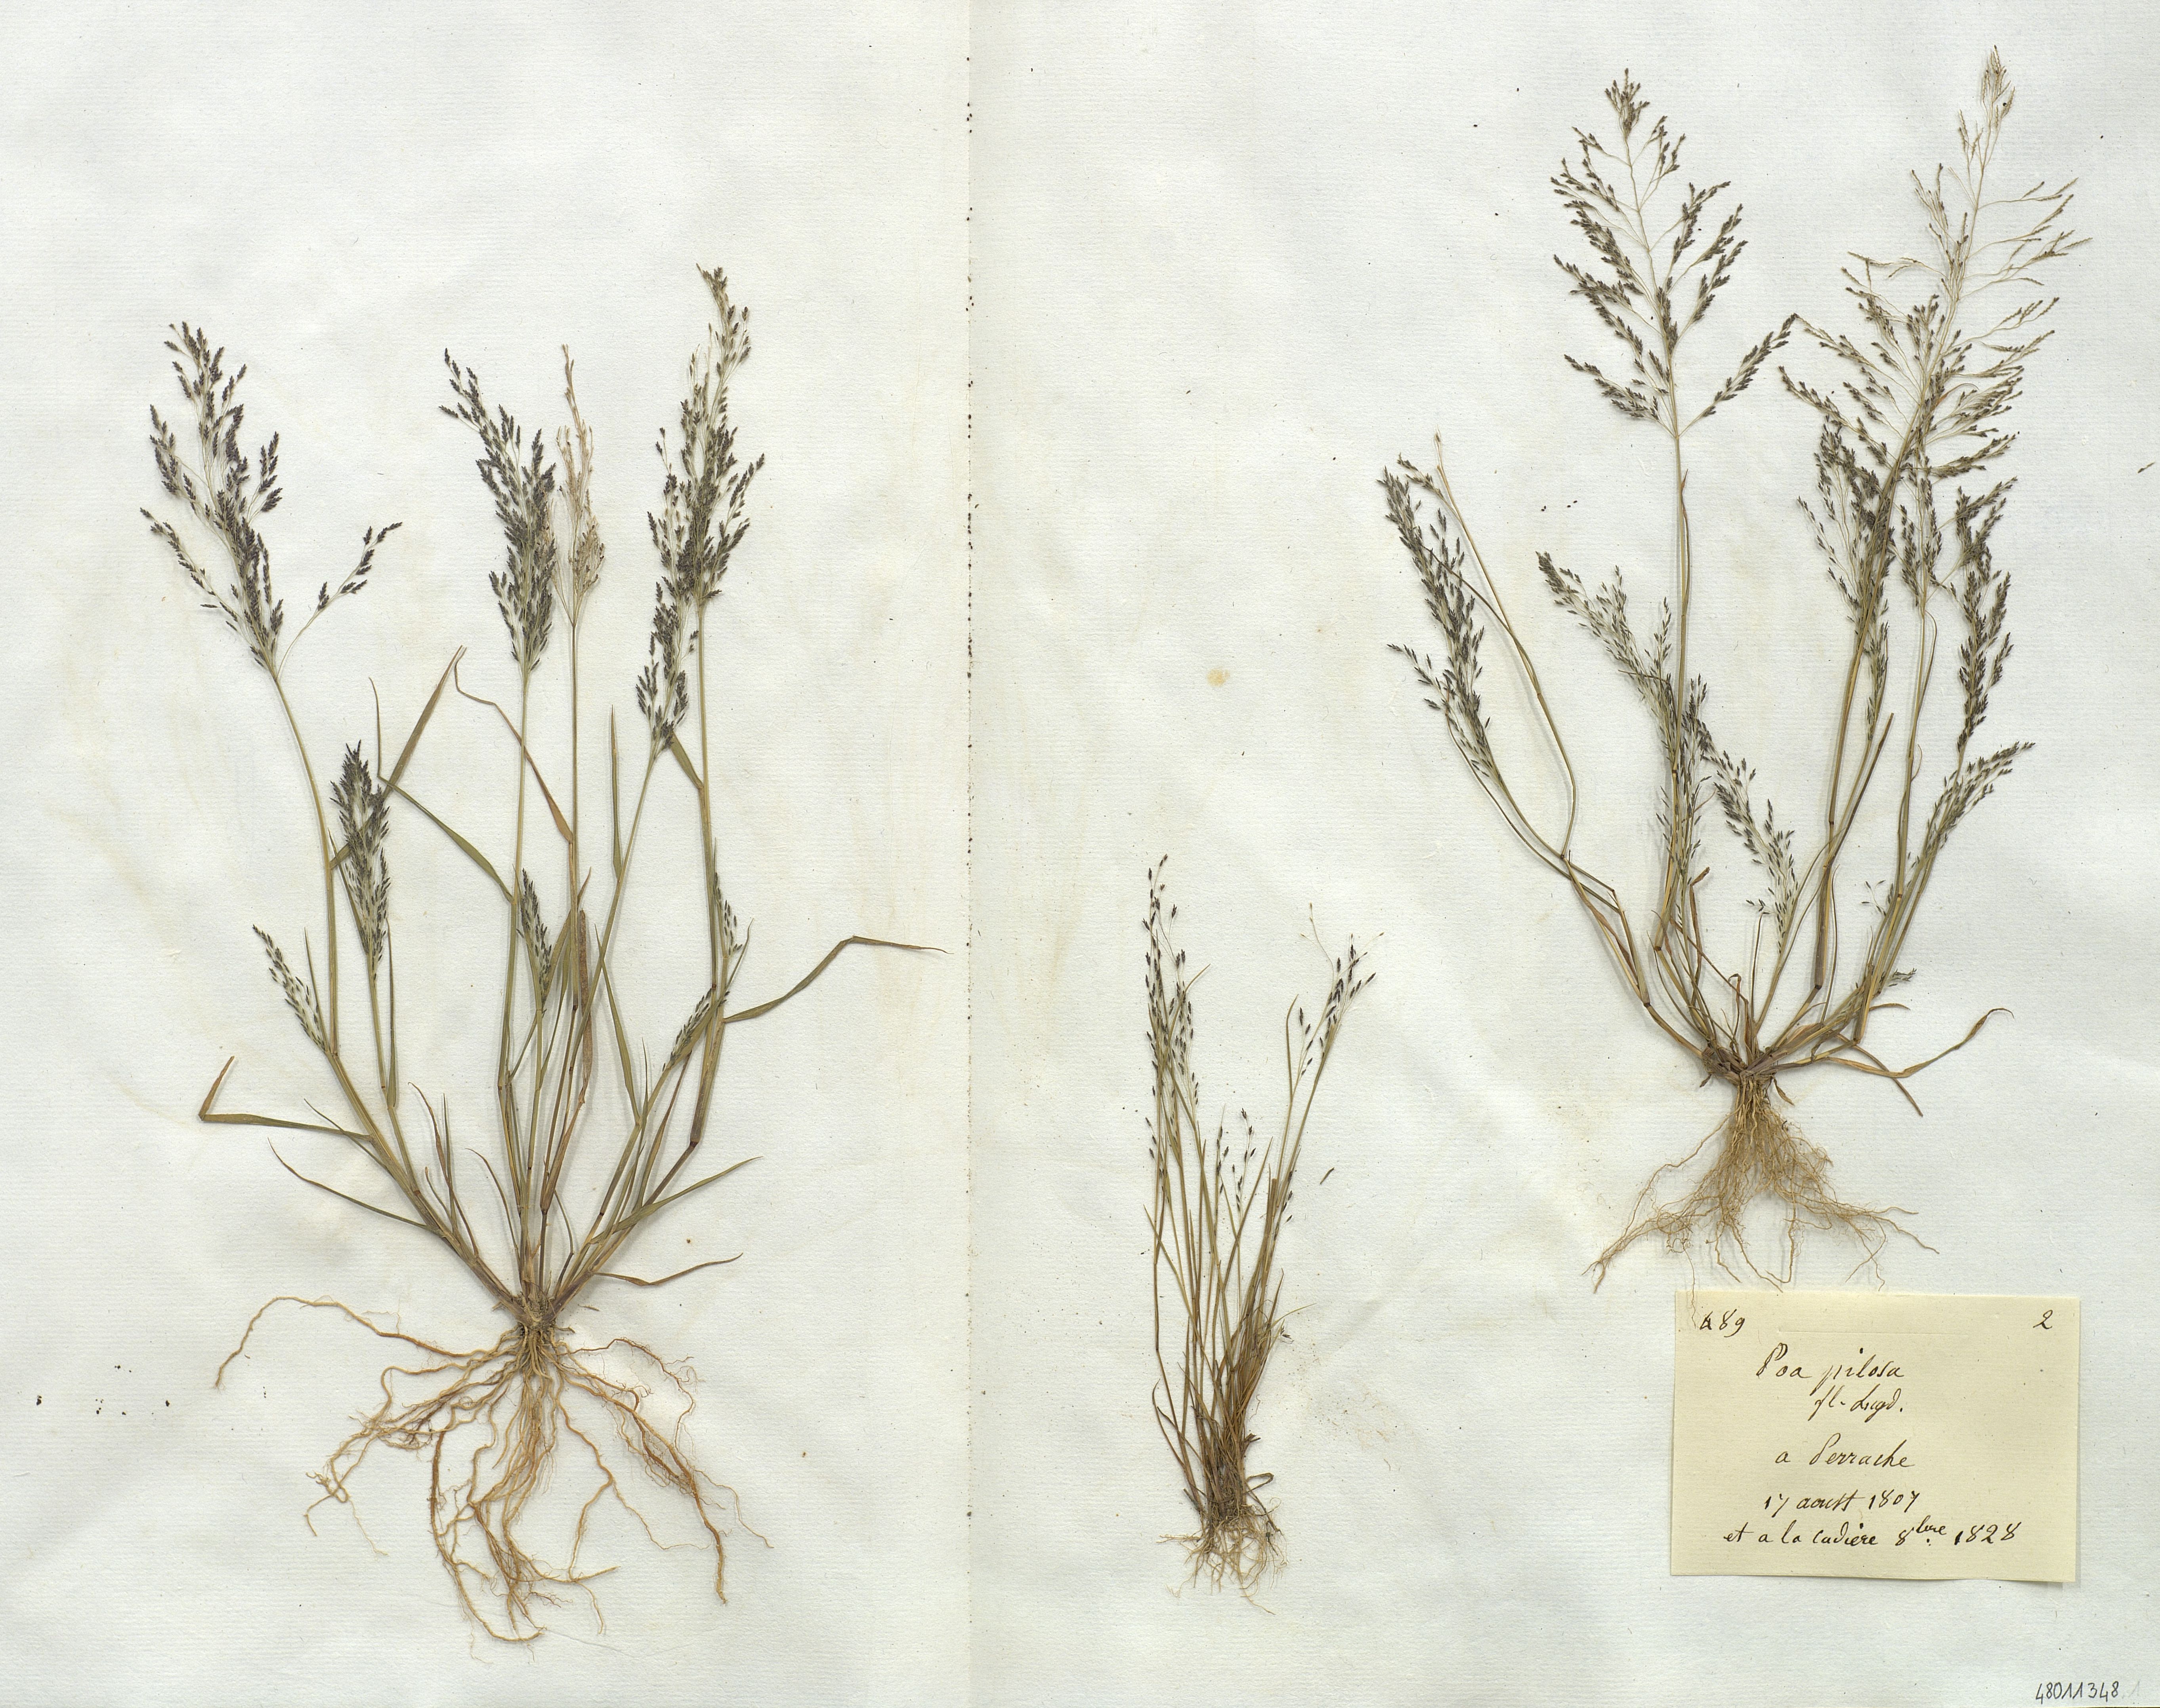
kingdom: Plantae
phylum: Tracheophyta
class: Liliopsida
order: Poales
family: Poaceae
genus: Eragrostis
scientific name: Eragrostis
